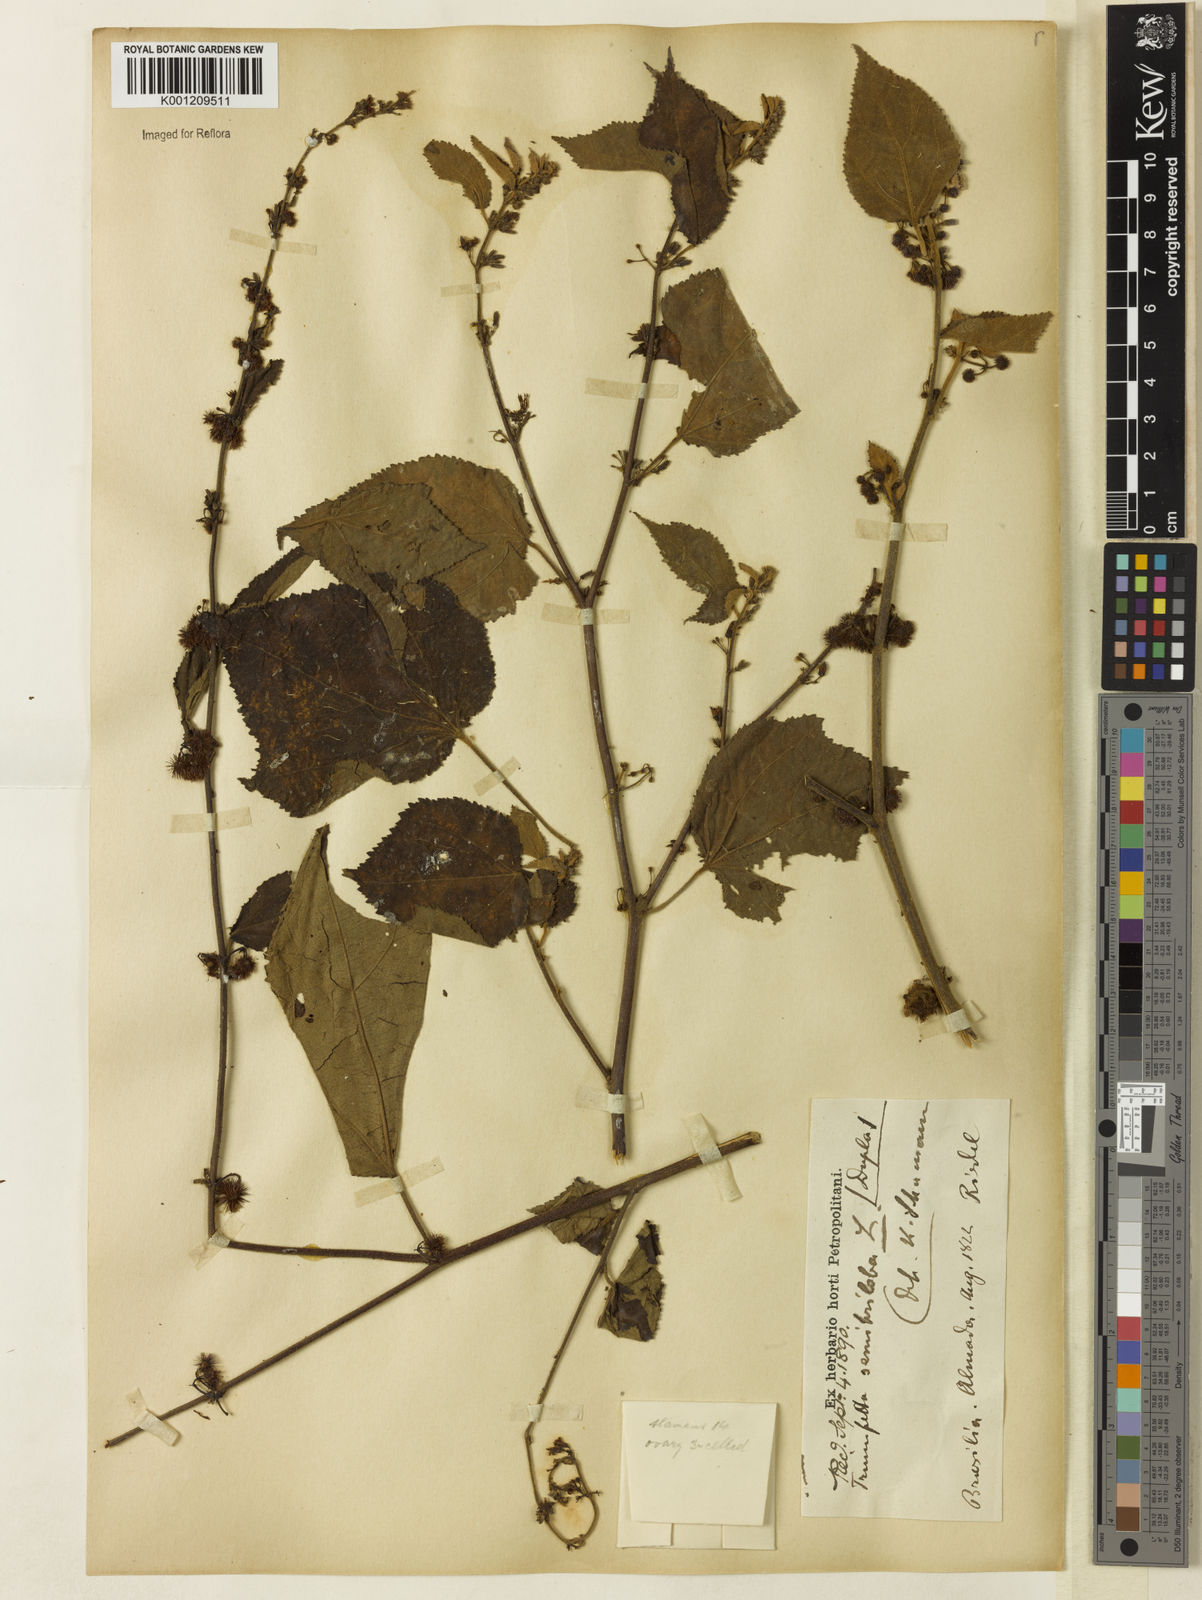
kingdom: Plantae
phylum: Tracheophyta
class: Magnoliopsida
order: Malvales
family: Malvaceae
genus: Triumfetta
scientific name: Triumfetta semitriloba
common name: Sacramento burbark
